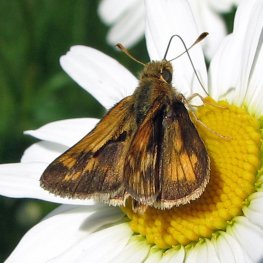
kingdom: Animalia
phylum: Arthropoda
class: Insecta
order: Lepidoptera
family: Hesperiidae
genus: Polites
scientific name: Polites coras
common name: Peck's Skipper
